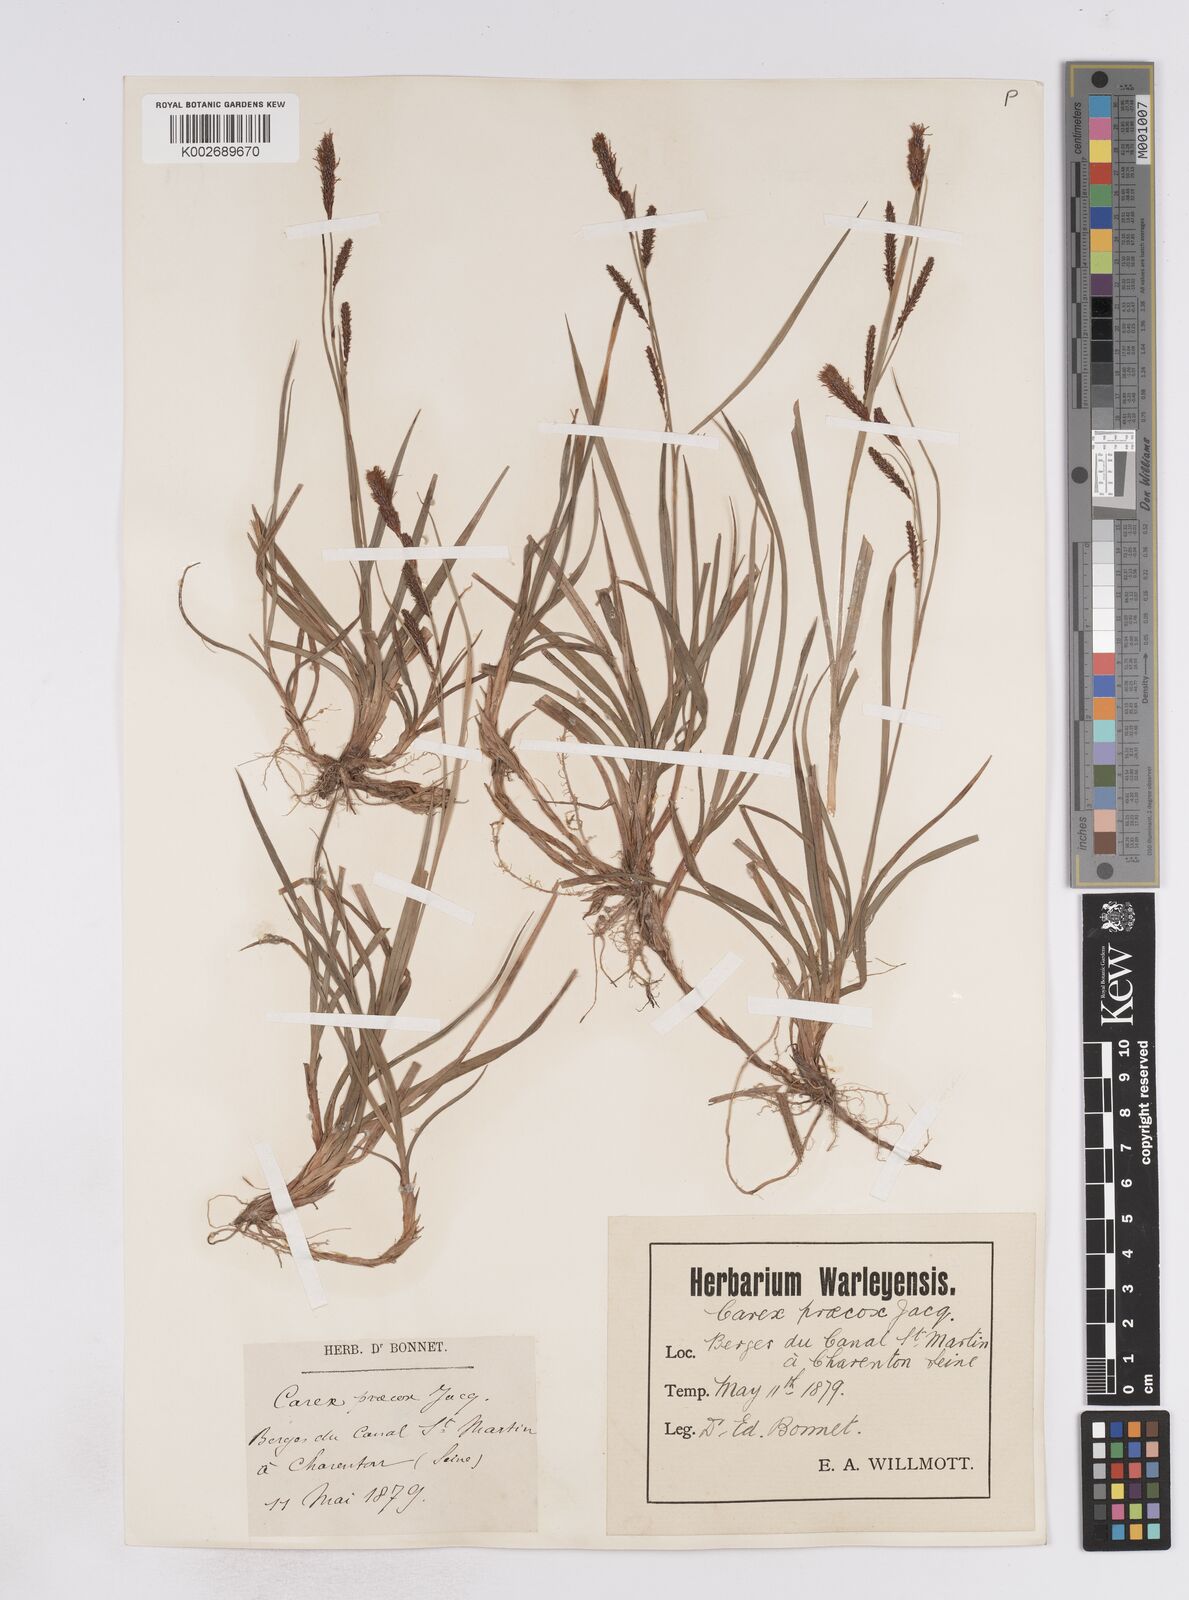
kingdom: Plantae
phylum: Tracheophyta
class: Liliopsida
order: Poales
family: Cyperaceae
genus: Carex
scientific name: Carex flacca
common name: Glaucous sedge
